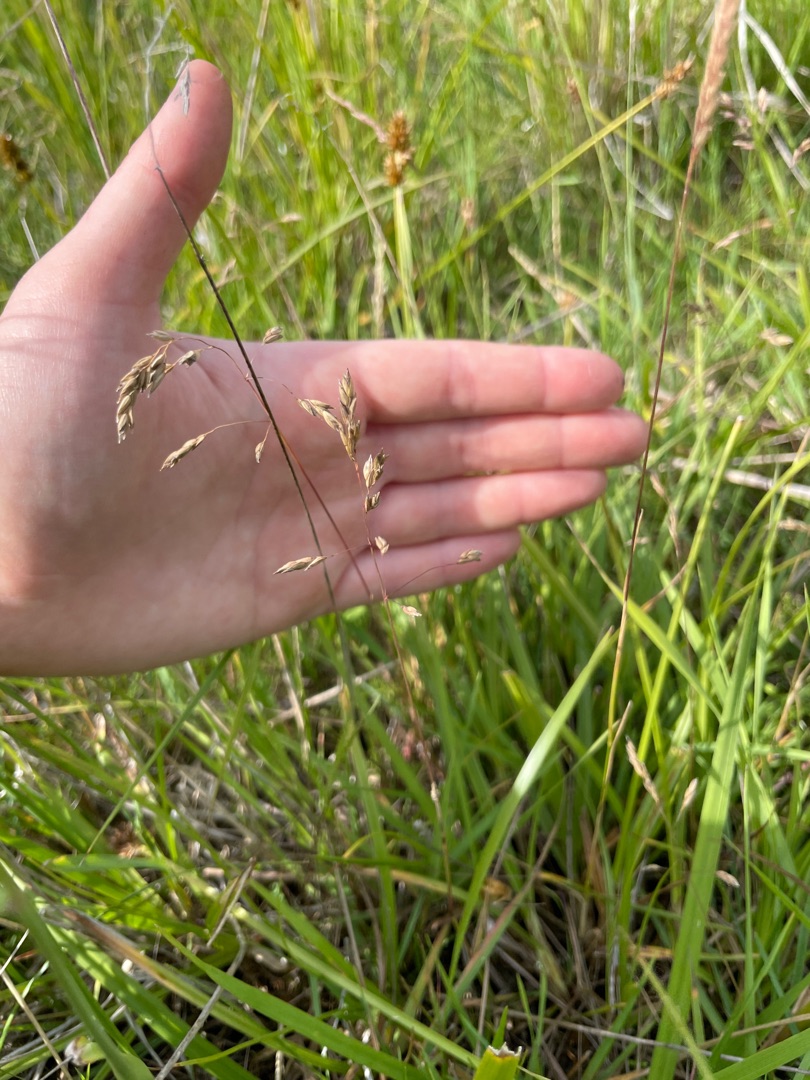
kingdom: Plantae
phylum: Tracheophyta
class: Liliopsida
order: Poales
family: Poaceae
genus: Poa
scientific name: Poa pratensis
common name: Eng-rapgræs
